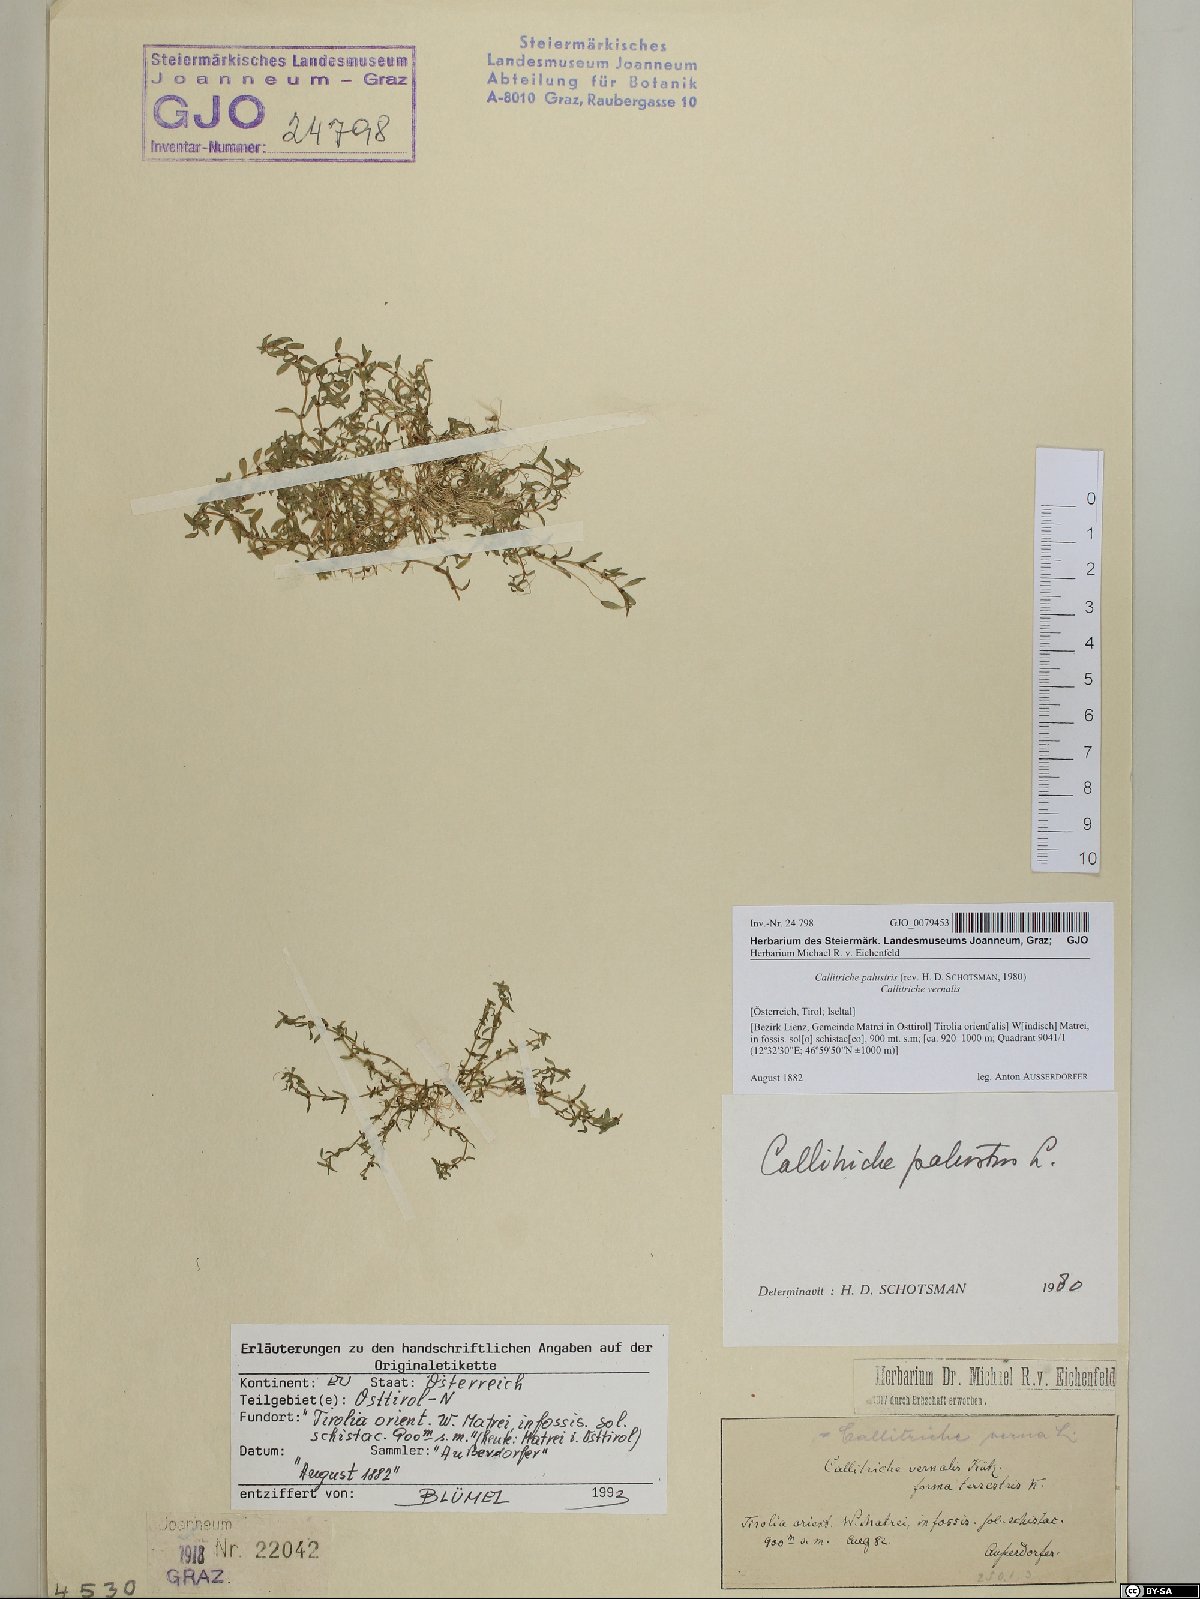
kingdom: Plantae
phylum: Tracheophyta
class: Magnoliopsida
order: Lamiales
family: Plantaginaceae
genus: Callitriche
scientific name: Callitriche palustris
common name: Spring water-starwort
